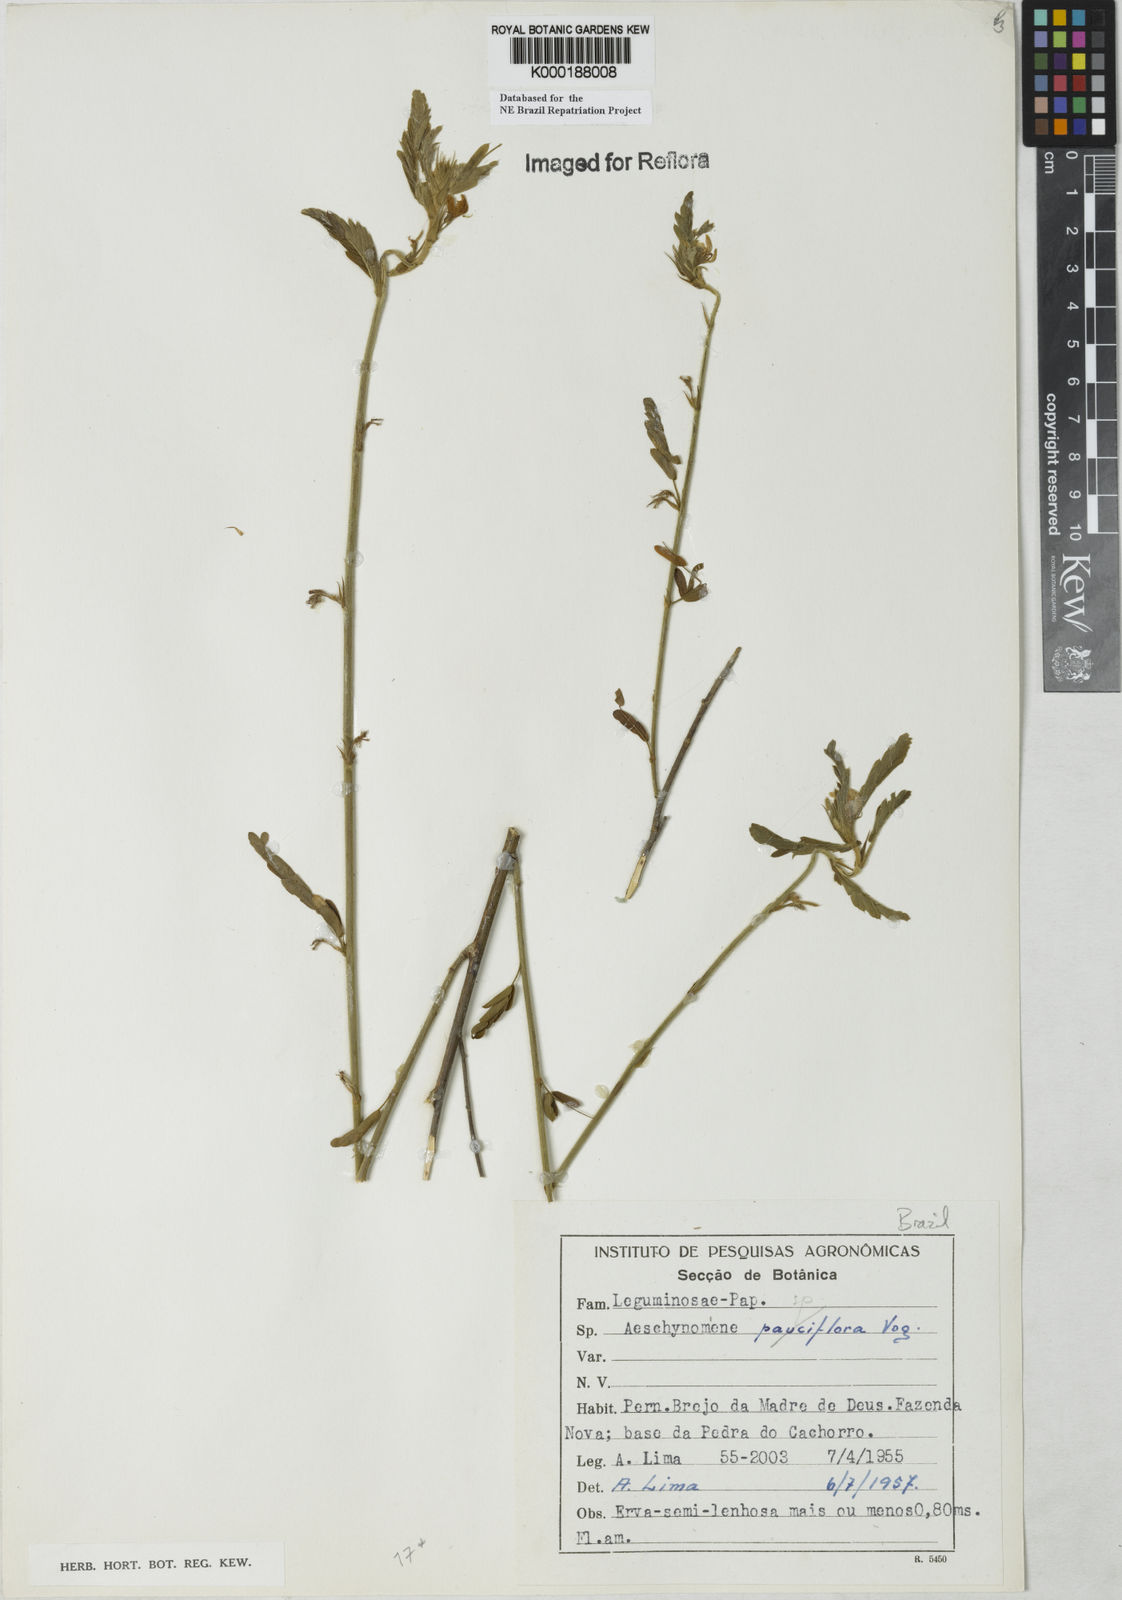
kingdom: Plantae
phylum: Tracheophyta
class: Magnoliopsida
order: Fabales
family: Fabaceae
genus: Aeschynomene
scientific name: Aeschynomene
